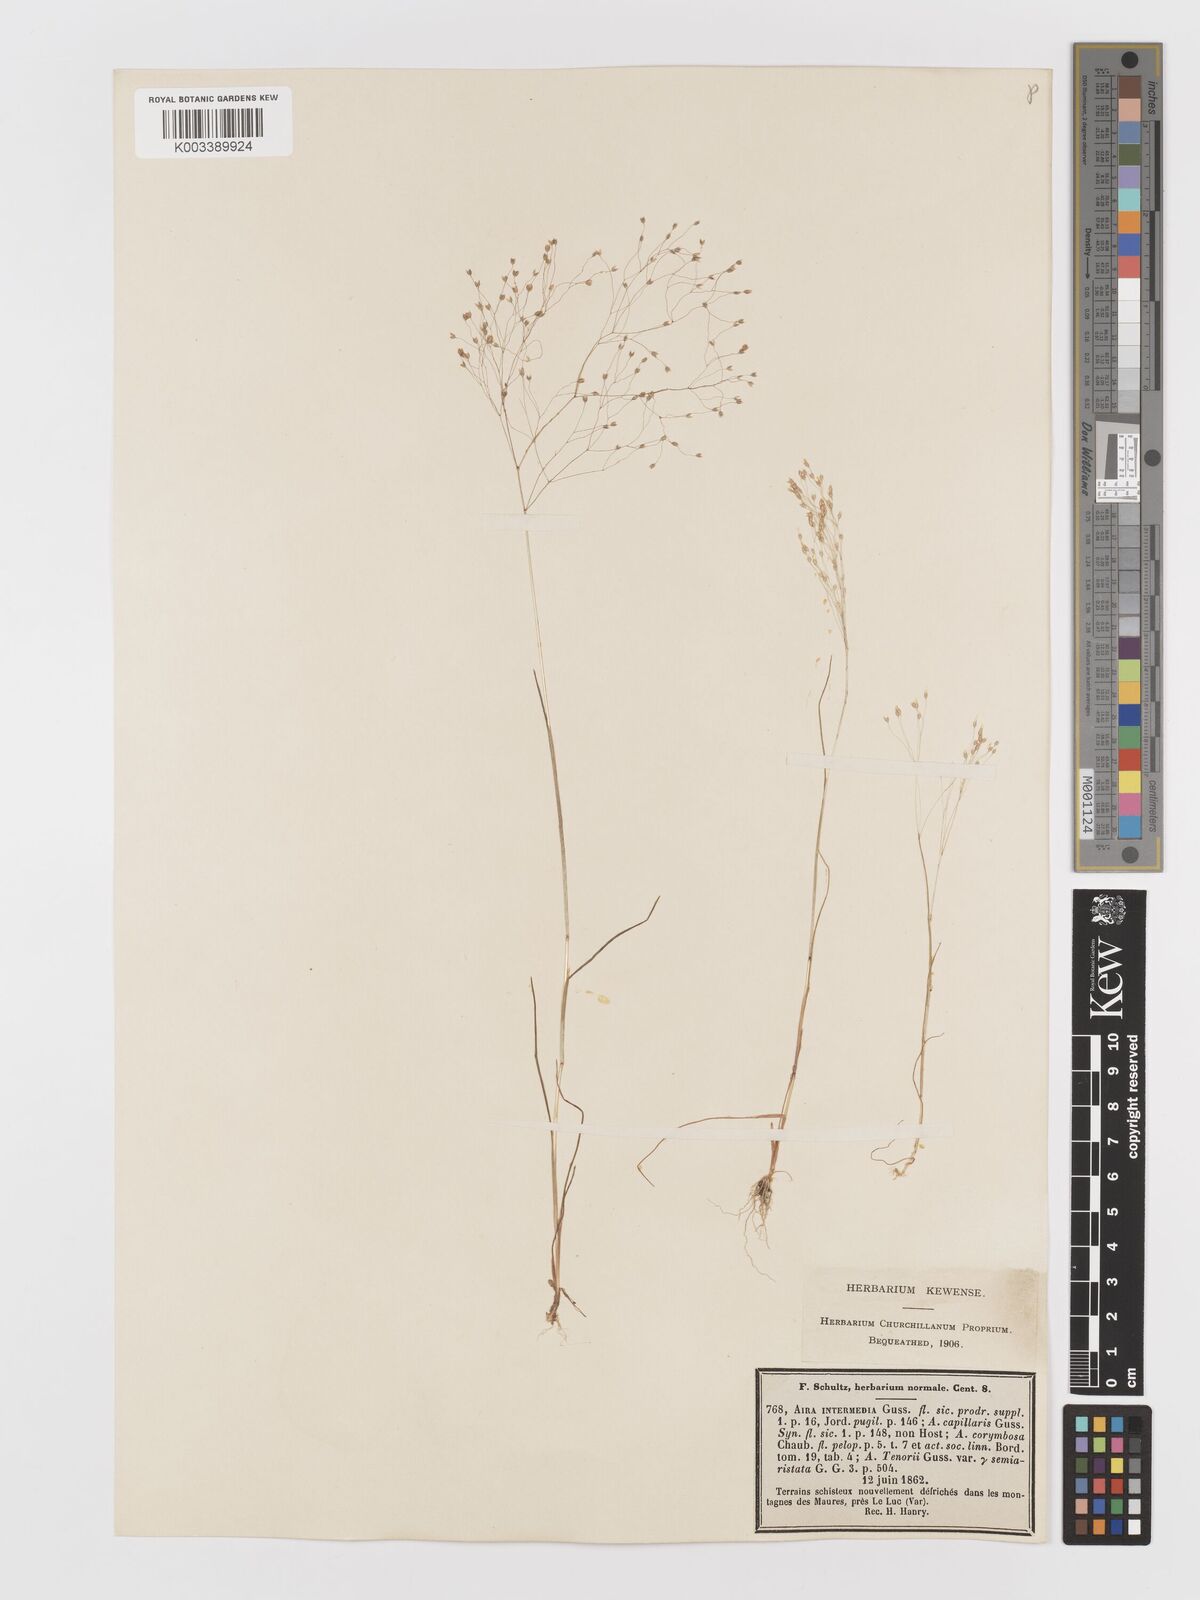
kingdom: Plantae
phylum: Tracheophyta
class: Liliopsida
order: Poales
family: Poaceae
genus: Aira
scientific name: Aira
